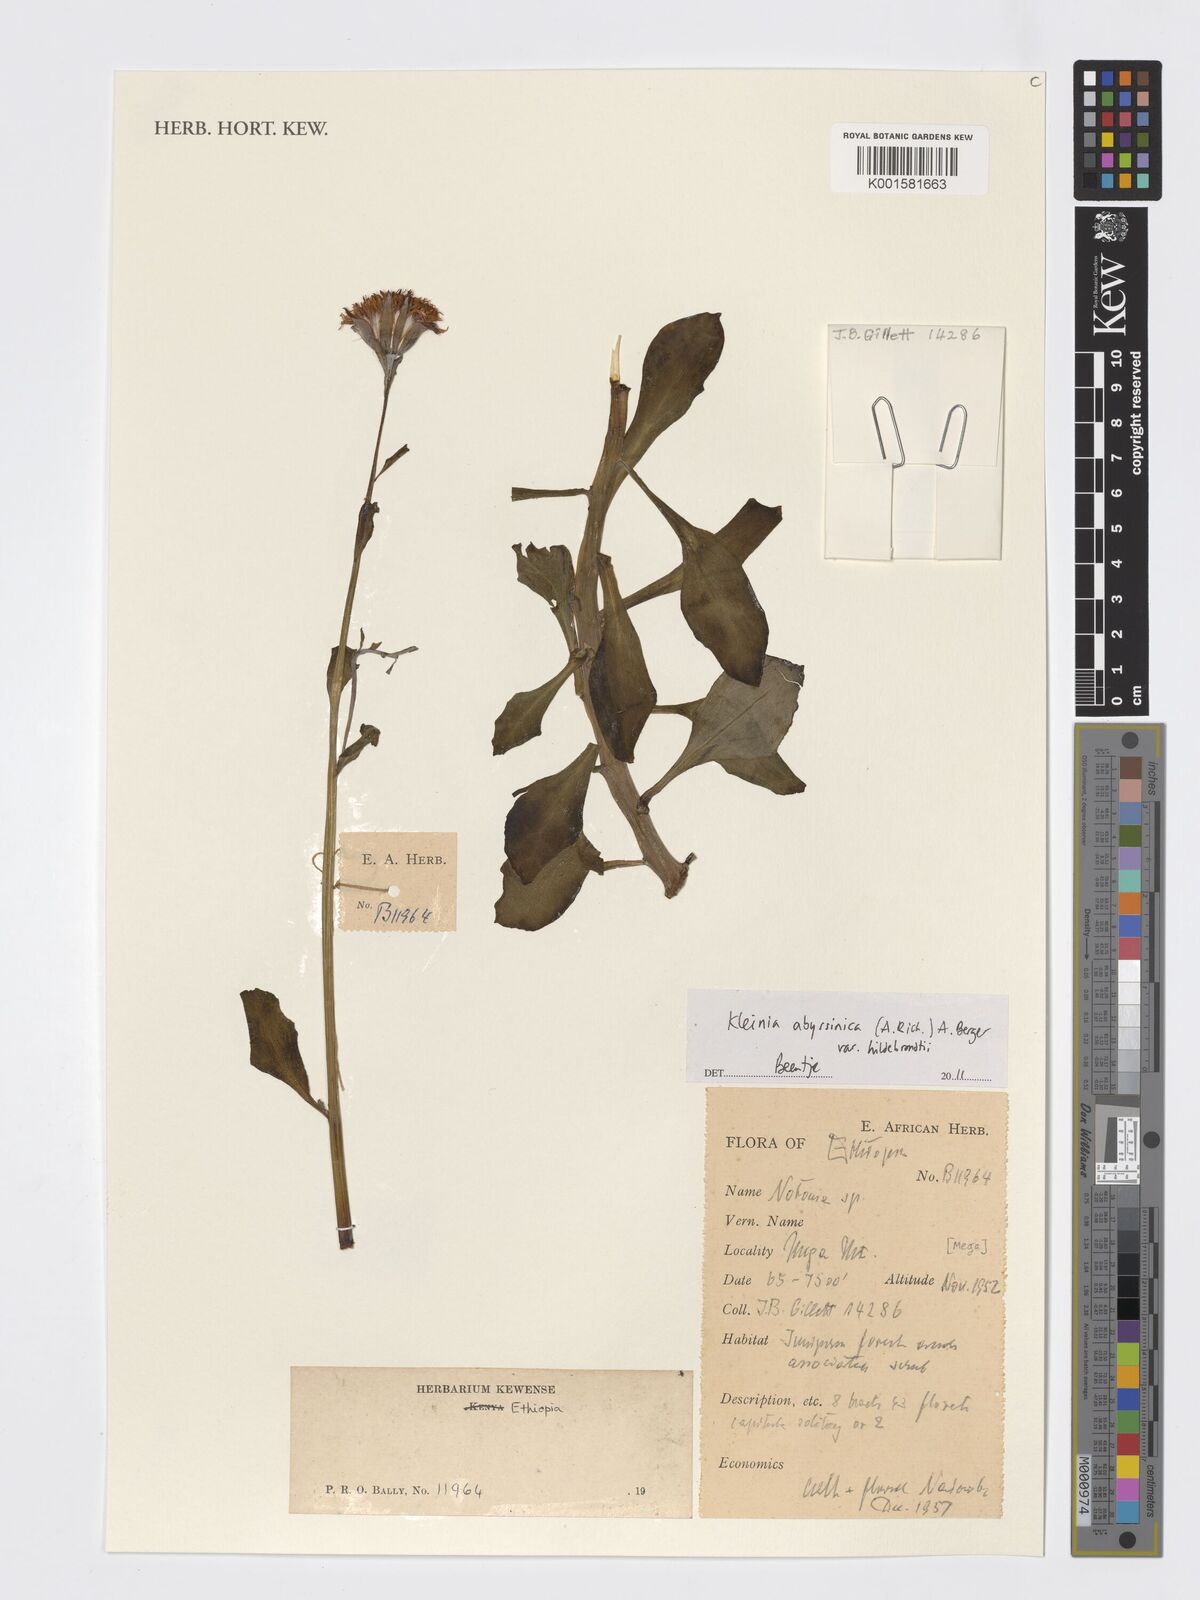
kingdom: Plantae
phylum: Tracheophyta
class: Magnoliopsida
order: Asterales
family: Asteraceae
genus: Kleinia
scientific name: Kleinia abyssinica
